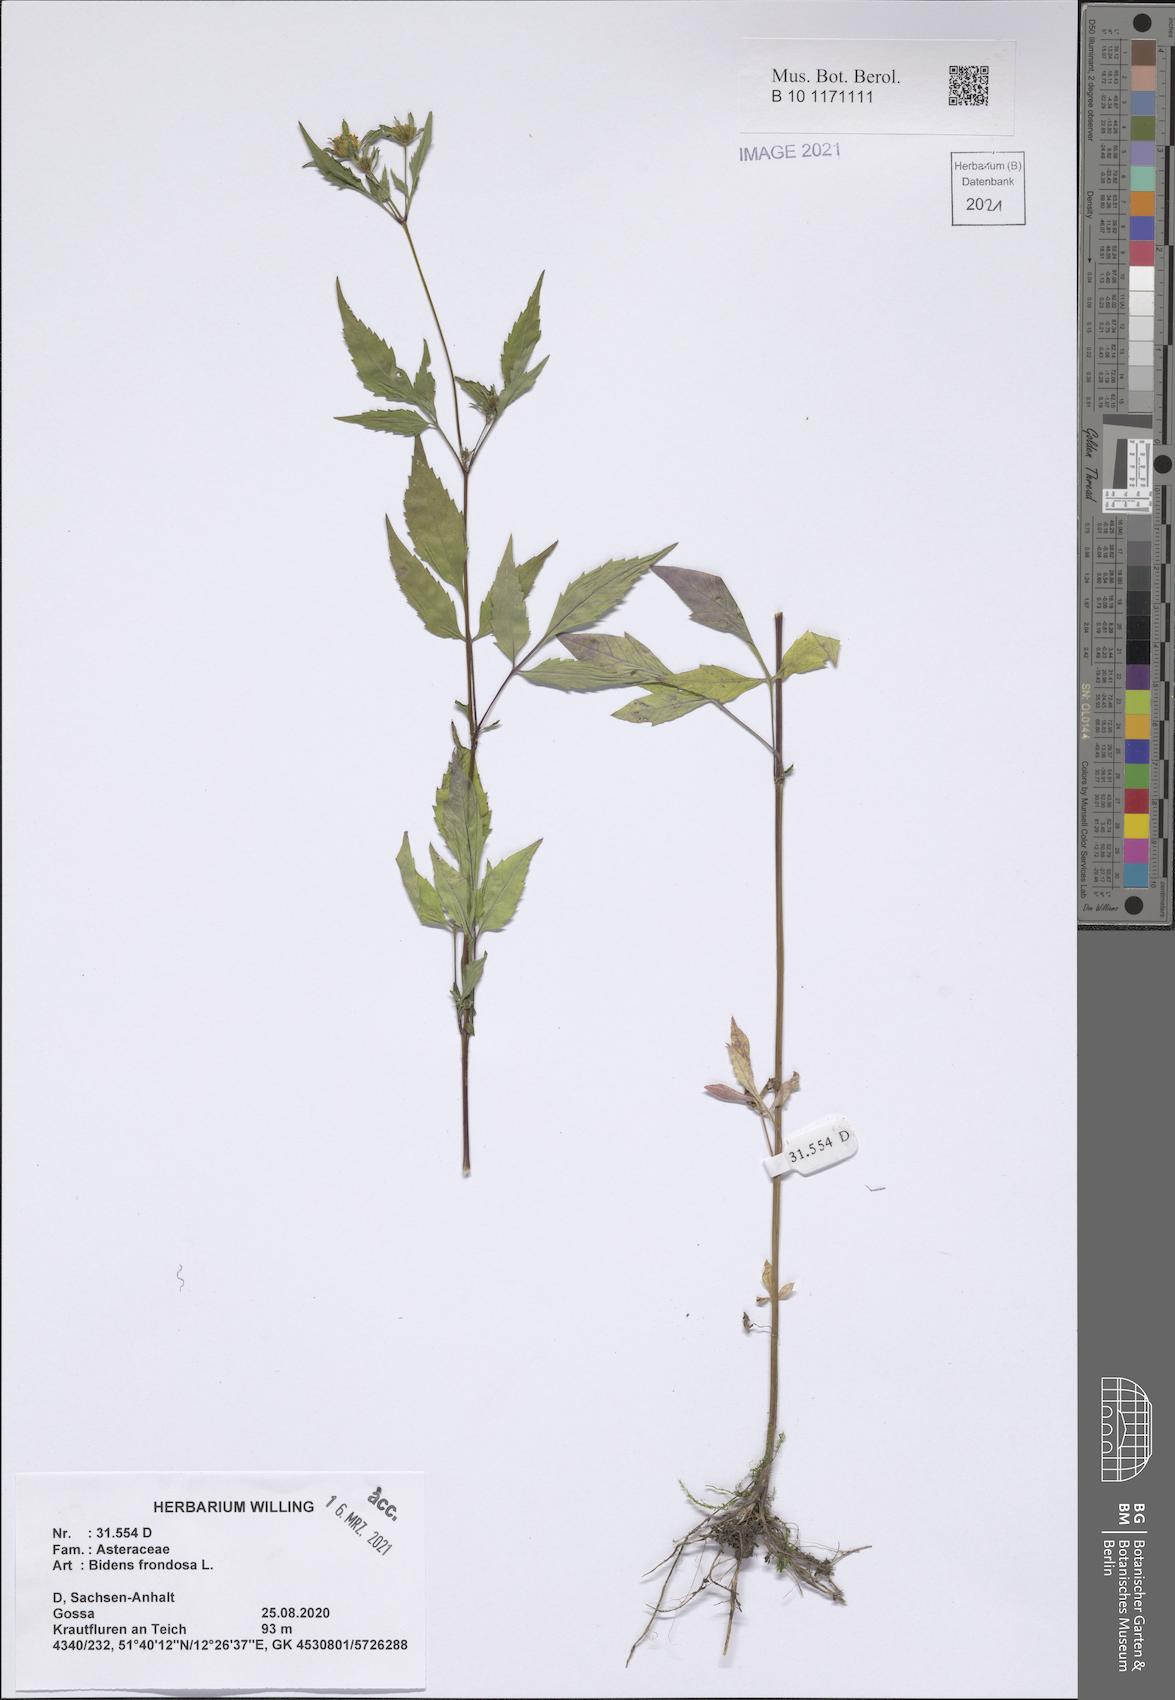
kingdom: Plantae
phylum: Tracheophyta
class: Magnoliopsida
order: Asterales
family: Asteraceae
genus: Bidens
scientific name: Bidens frondosa
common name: Beggarticks
